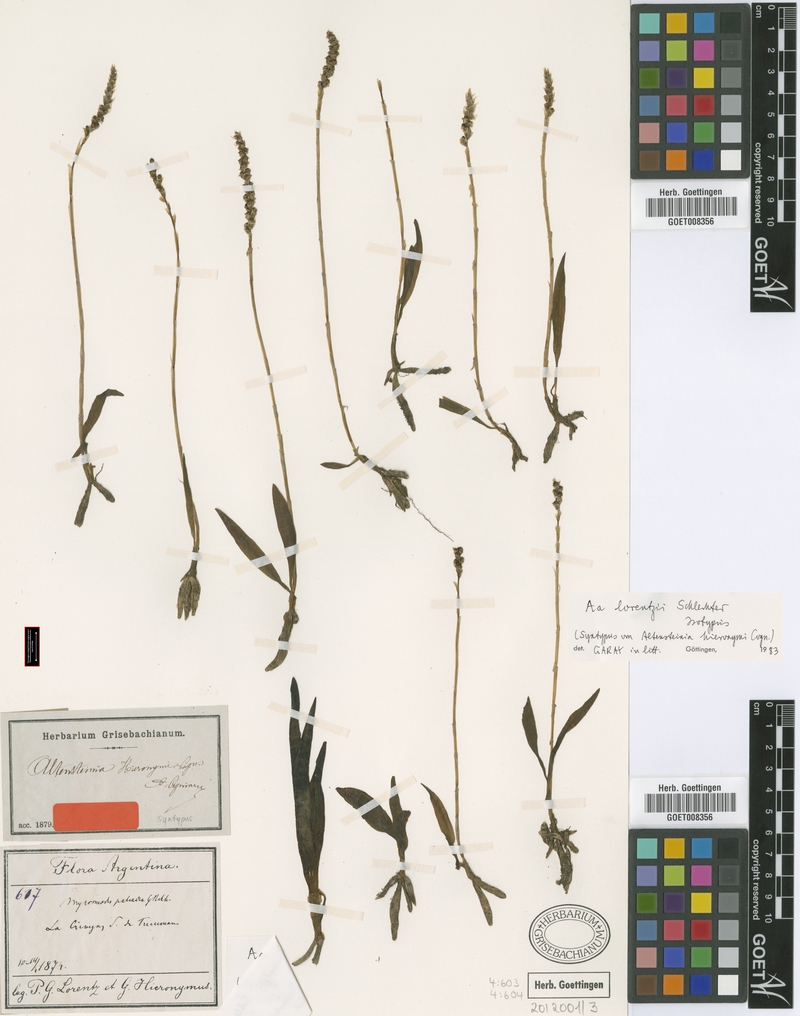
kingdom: Plantae
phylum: Tracheophyta
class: Liliopsida
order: Asparagales
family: Orchidaceae
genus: Aa
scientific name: Aa lorentzii
